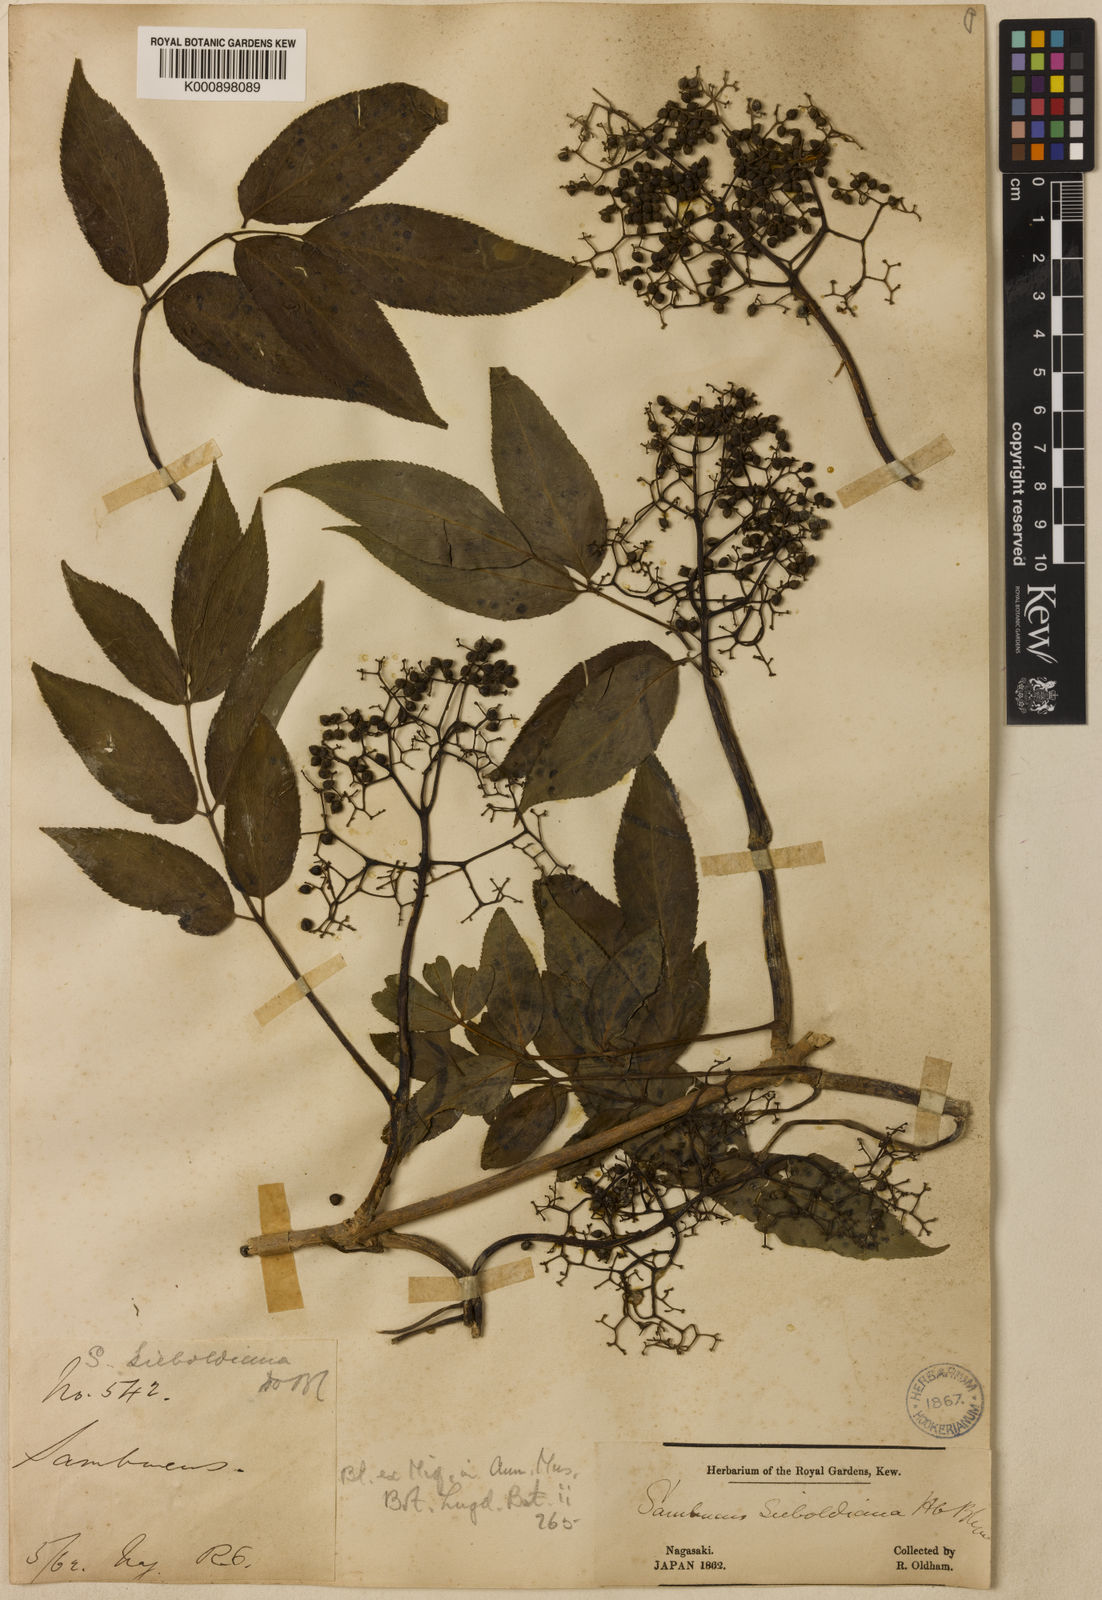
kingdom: Plantae
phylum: Tracheophyta
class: Magnoliopsida
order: Dipsacales
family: Viburnaceae
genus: Sambucus
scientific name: Sambucus
